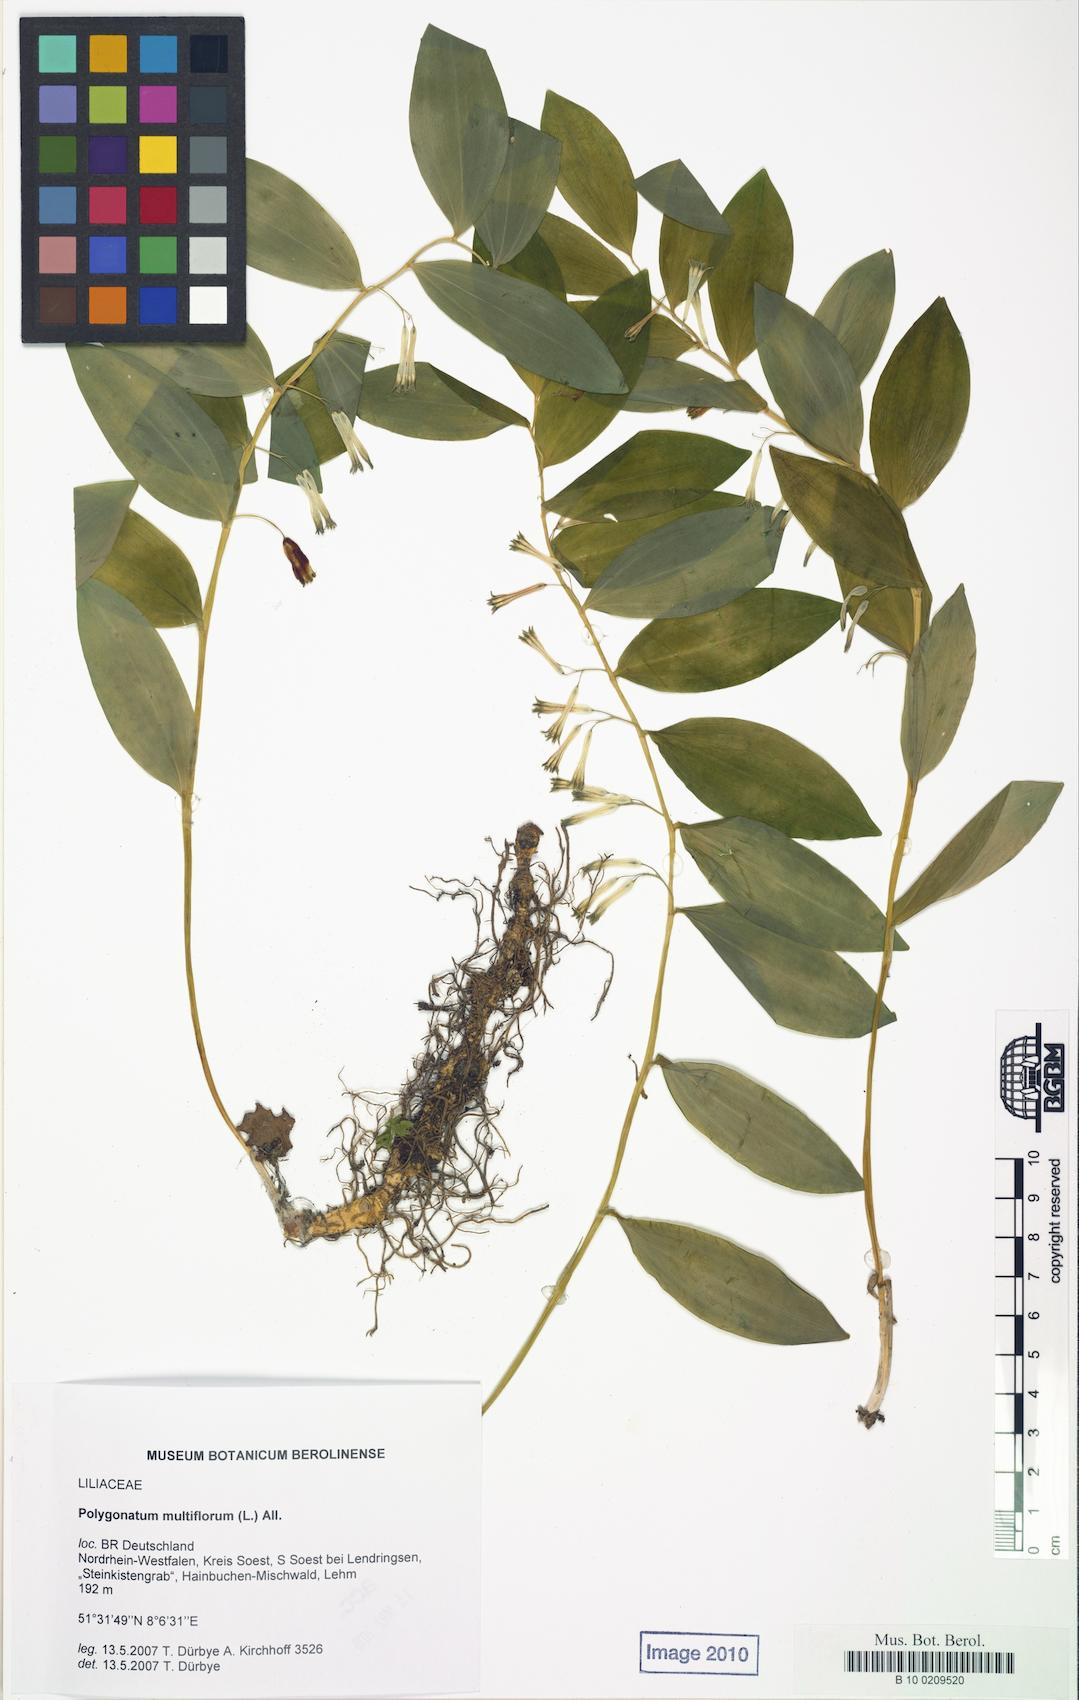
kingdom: Plantae
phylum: Tracheophyta
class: Liliopsida
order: Asparagales
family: Asparagaceae
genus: Polygonatum
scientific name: Polygonatum multiflorum
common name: Solomon's-seal
